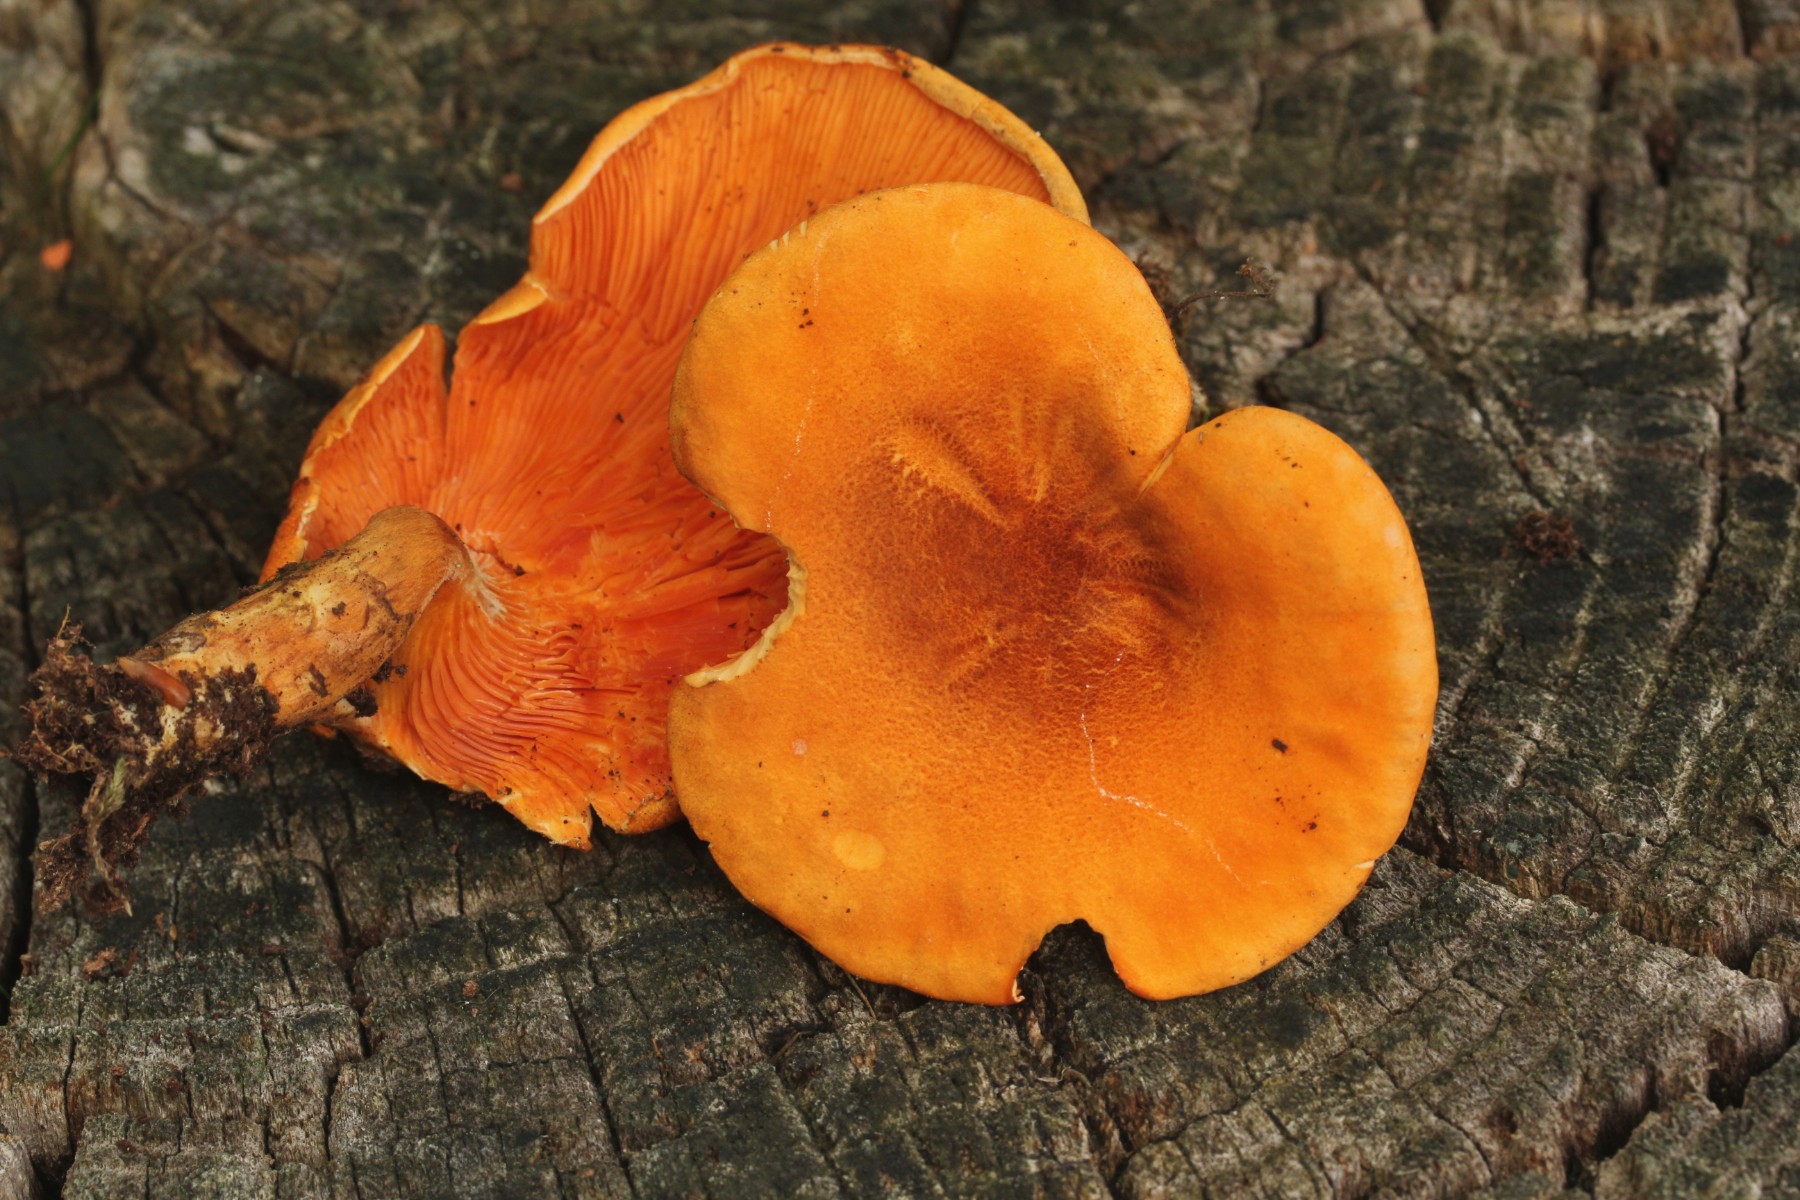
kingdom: Fungi
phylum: Basidiomycota
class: Agaricomycetes
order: Boletales
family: Hygrophoropsidaceae
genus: Hygrophoropsis
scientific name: Hygrophoropsis rufa
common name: brunfiltet orangekantarel
